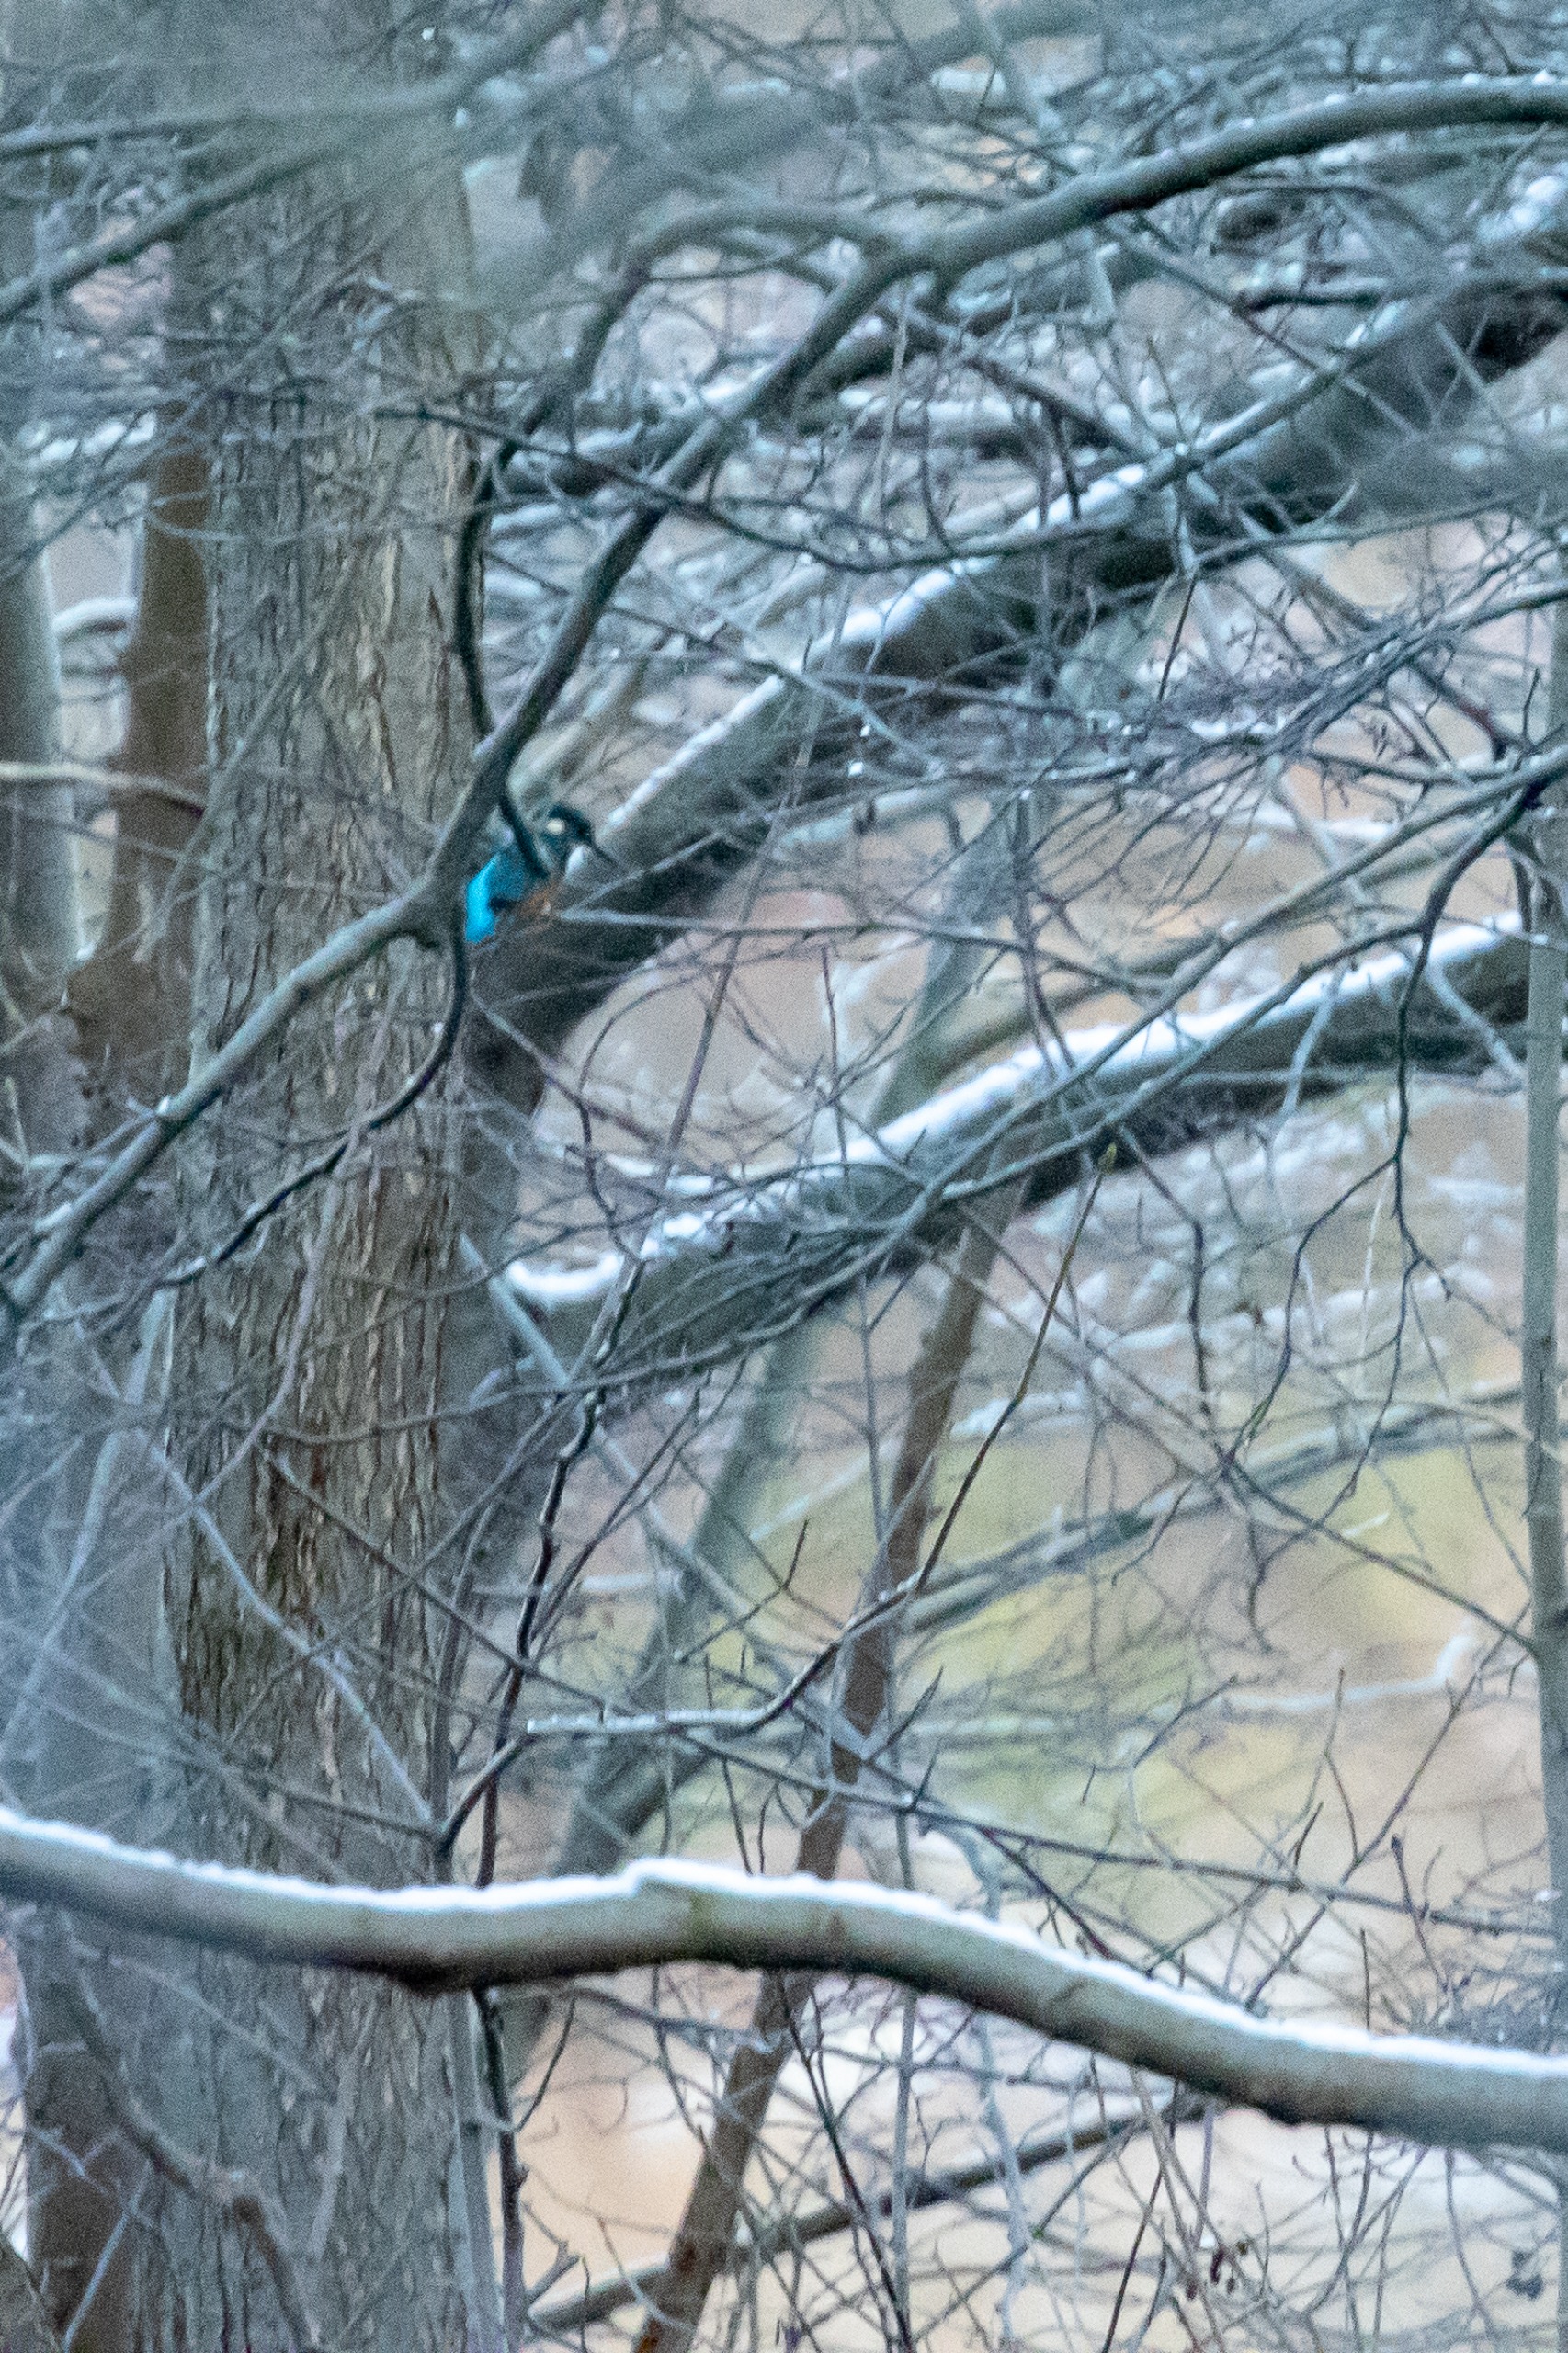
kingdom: Animalia
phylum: Chordata
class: Aves
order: Coraciiformes
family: Alcedinidae
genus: Alcedo
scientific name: Alcedo atthis
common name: Isfugl
